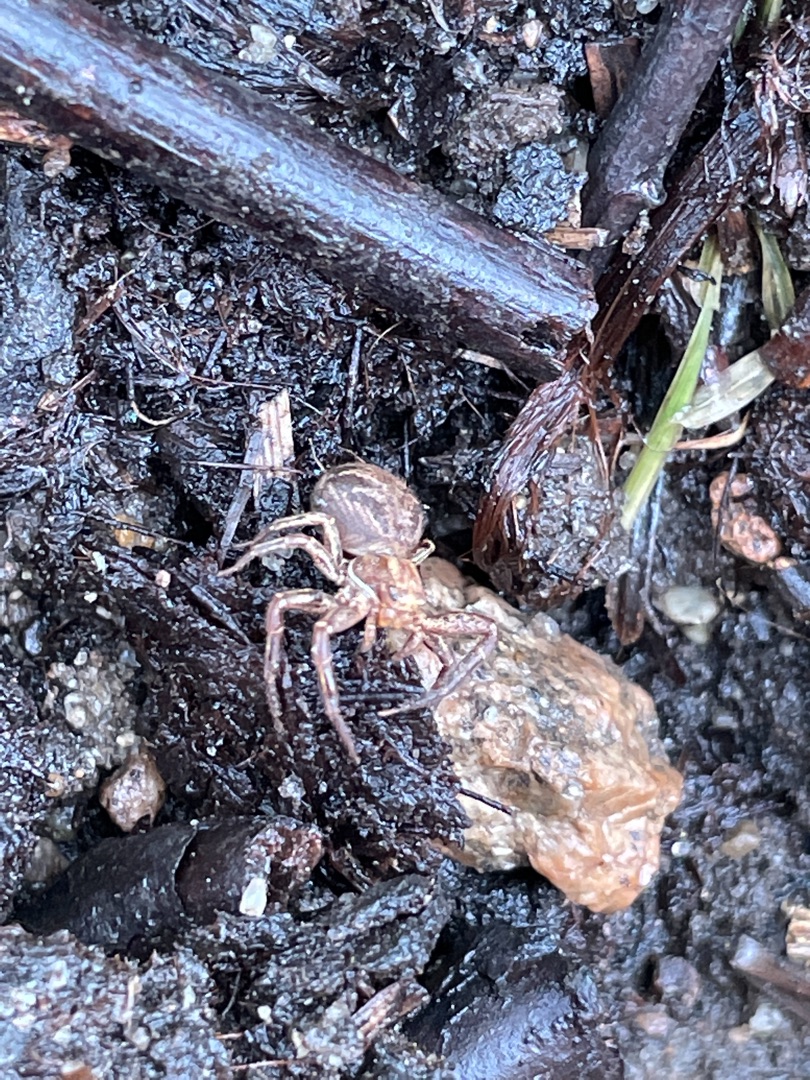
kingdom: Animalia
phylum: Arthropoda
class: Arachnida
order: Araneae
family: Thomisidae
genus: Xysticus
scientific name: Xysticus
